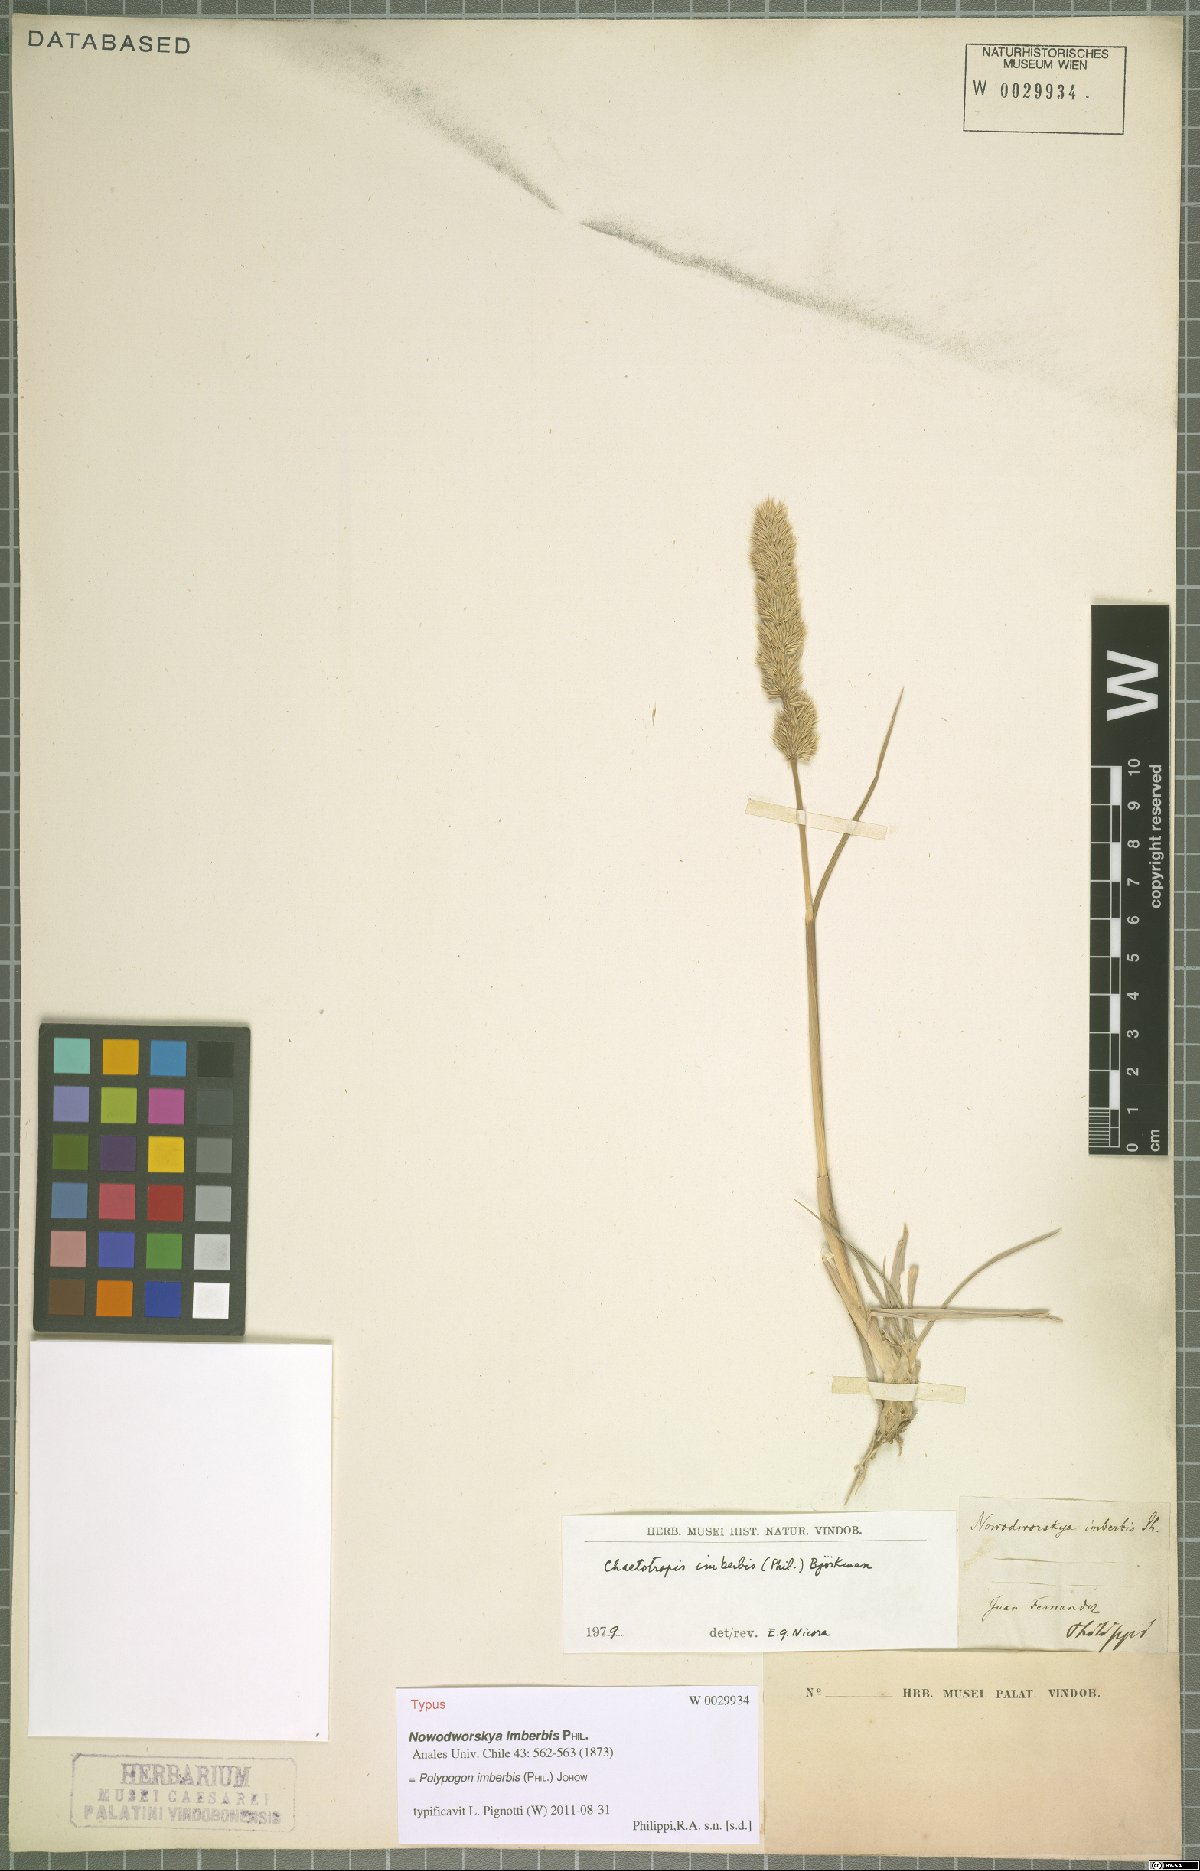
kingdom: Plantae
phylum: Tracheophyta
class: Liliopsida
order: Poales
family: Poaceae
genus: Polypogon
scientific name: Polypogon imberbis
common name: Beardless rabbitsfoot grass
